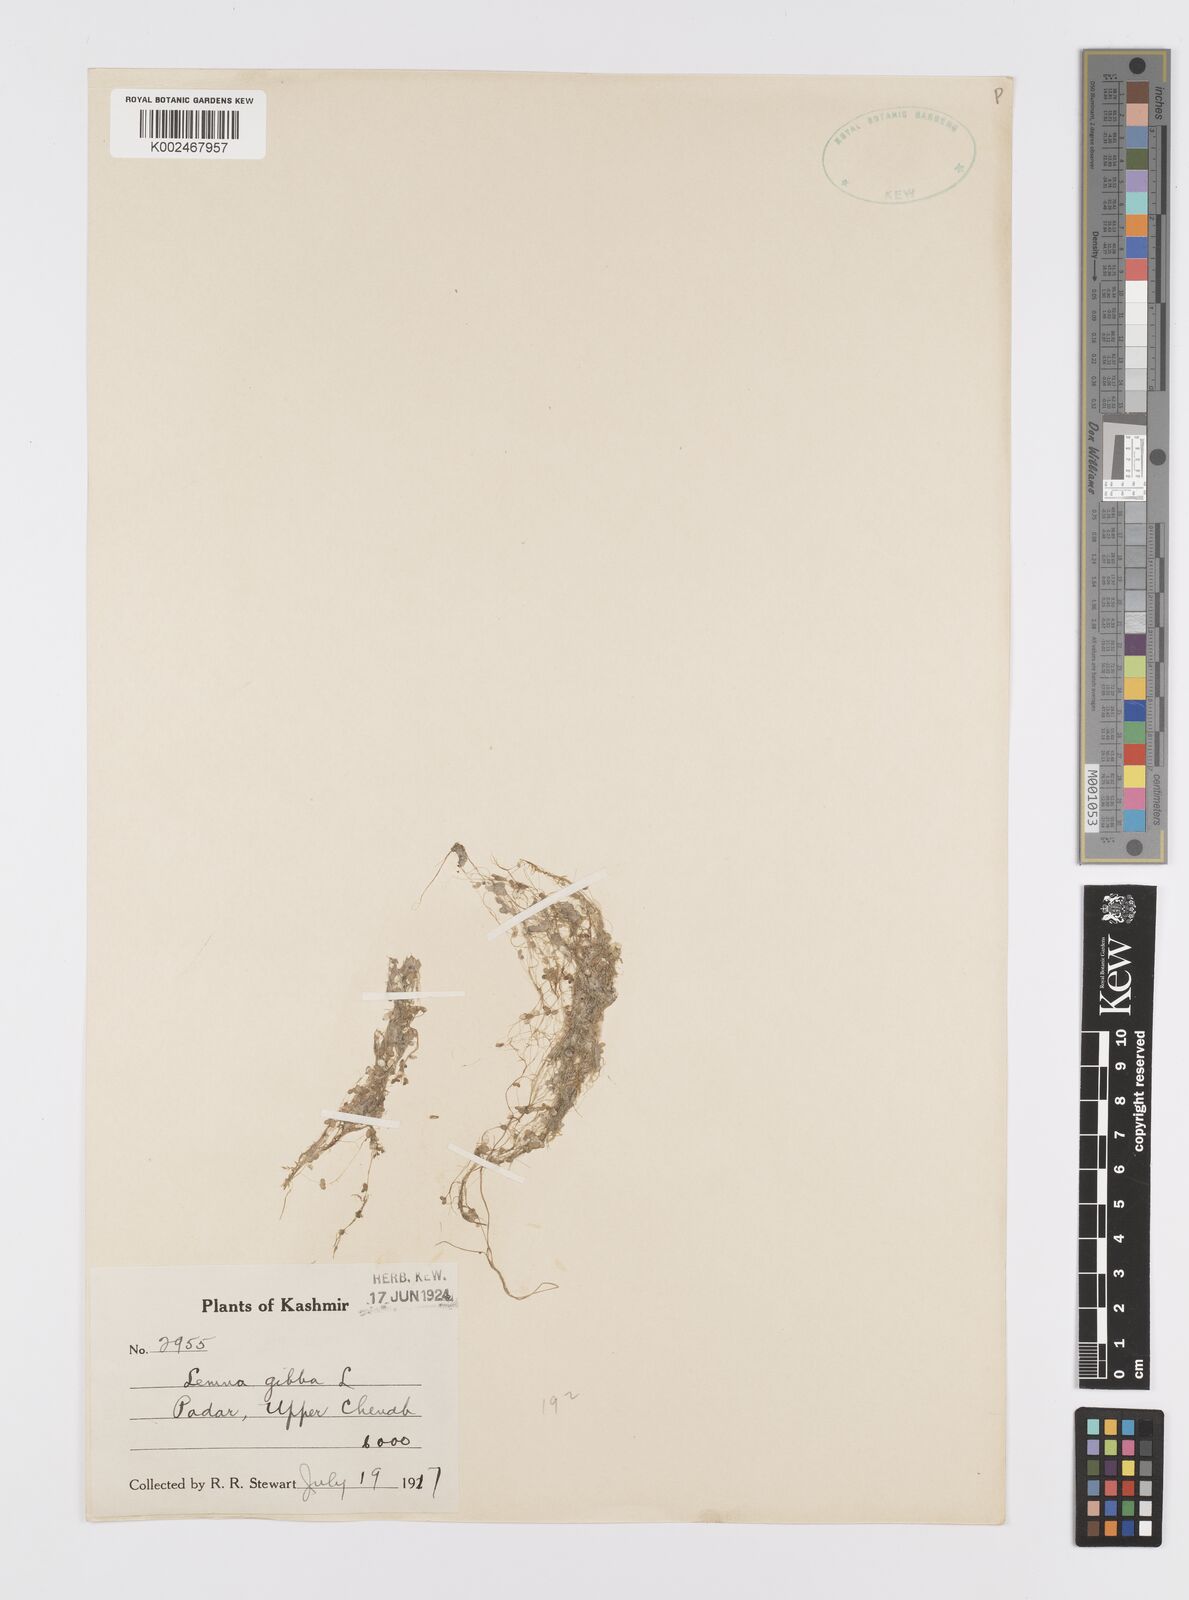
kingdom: Plantae
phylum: Tracheophyta
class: Liliopsida
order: Alismatales
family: Araceae
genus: Lemna
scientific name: Lemna gibba
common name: Fat duckweed
